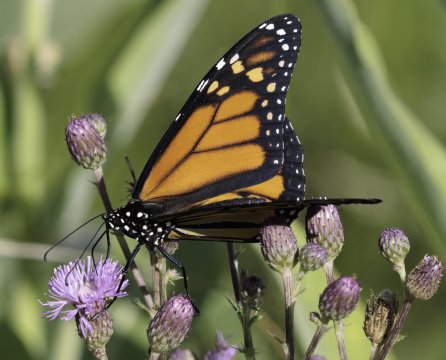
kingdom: Animalia
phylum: Arthropoda
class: Insecta
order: Lepidoptera
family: Nymphalidae
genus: Danaus
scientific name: Danaus plexippus
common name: Monarch
